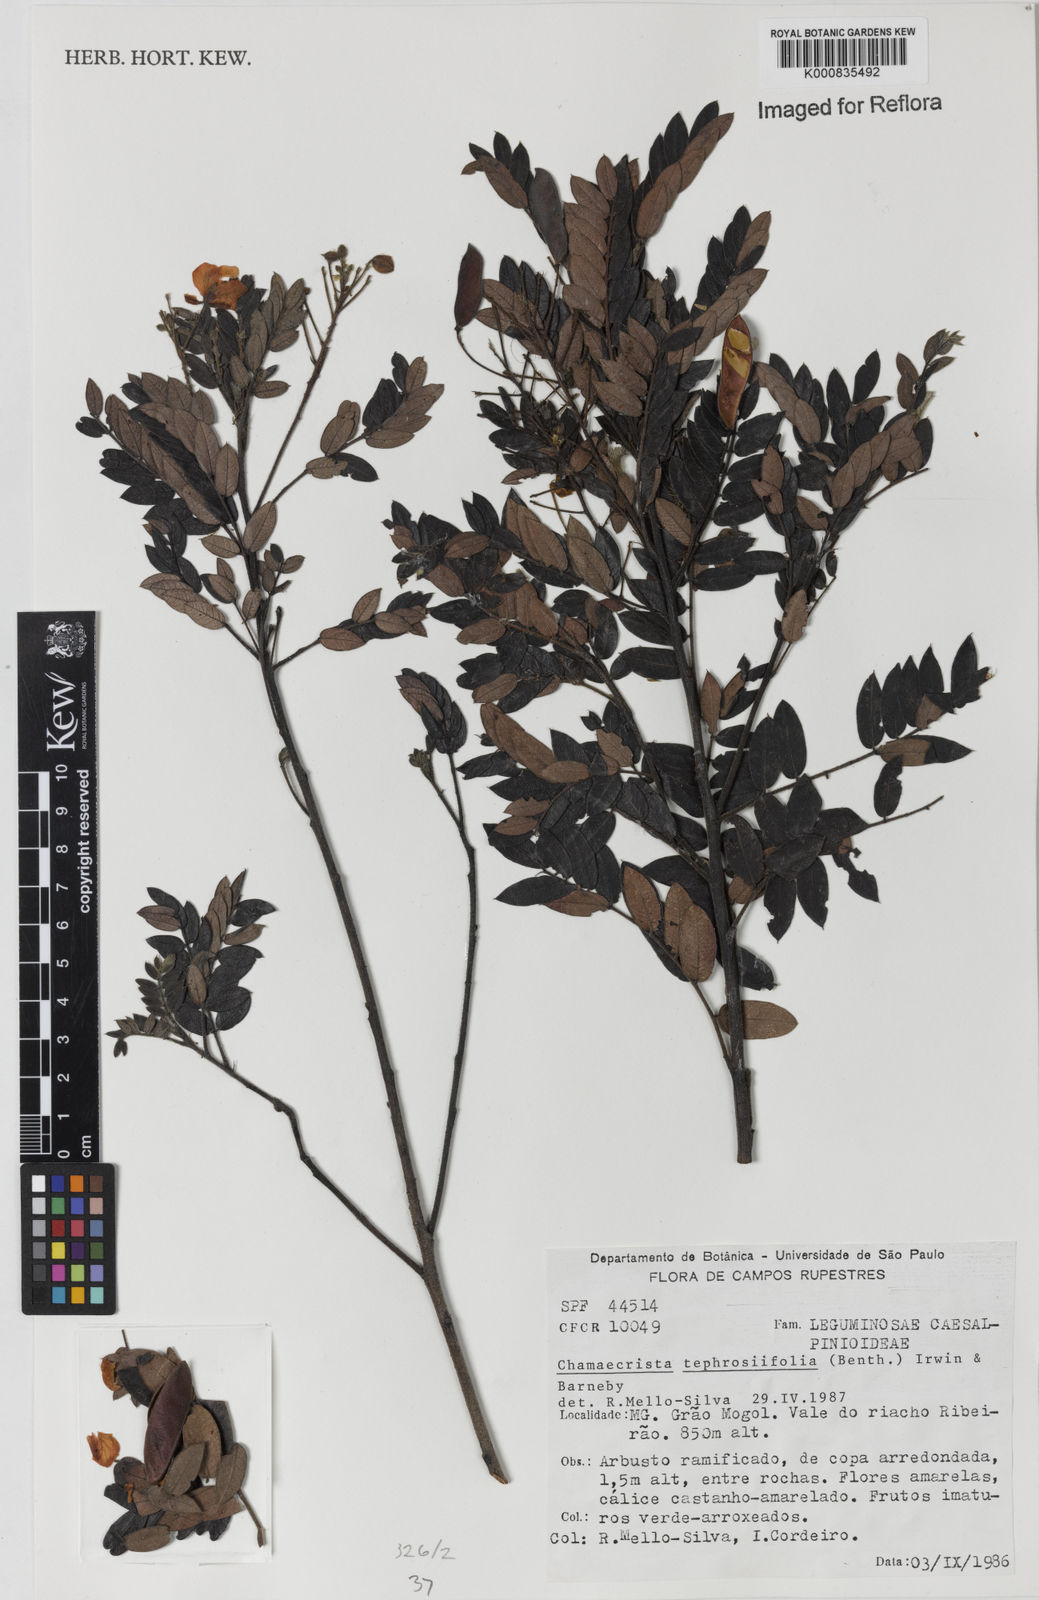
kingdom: Plantae
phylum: Tracheophyta
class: Magnoliopsida
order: Fabales
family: Fabaceae
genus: Chamaecrista
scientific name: Chamaecrista tephrosiifolia
